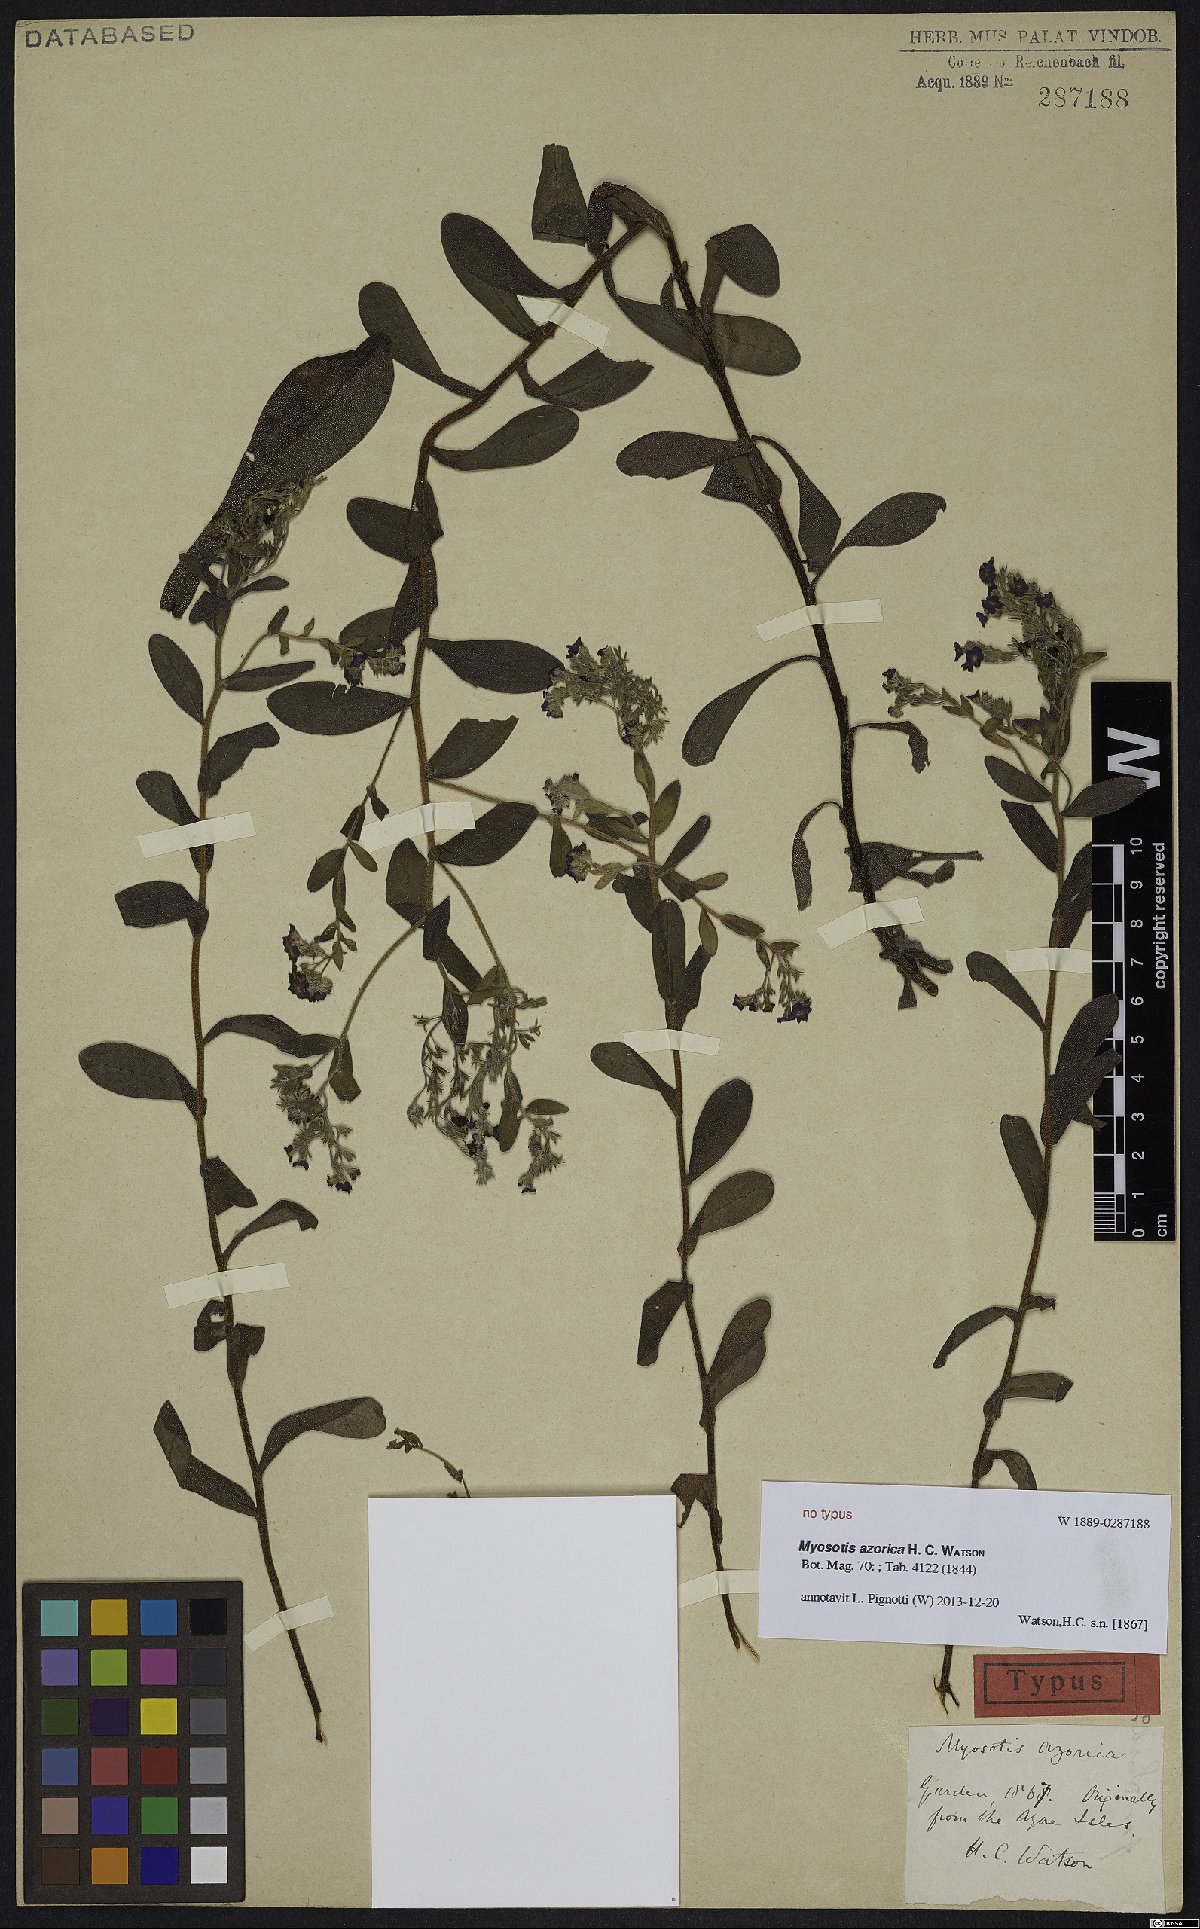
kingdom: Plantae
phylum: Tracheophyta
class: Magnoliopsida
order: Boraginales
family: Boraginaceae
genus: Myosotis
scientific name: Myosotis azorica
